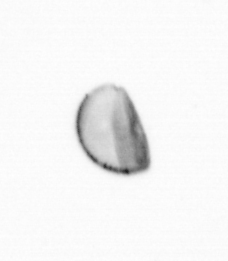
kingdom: Chromista
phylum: Ochrophyta
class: Bacillariophyceae
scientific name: Bacillariophyceae
